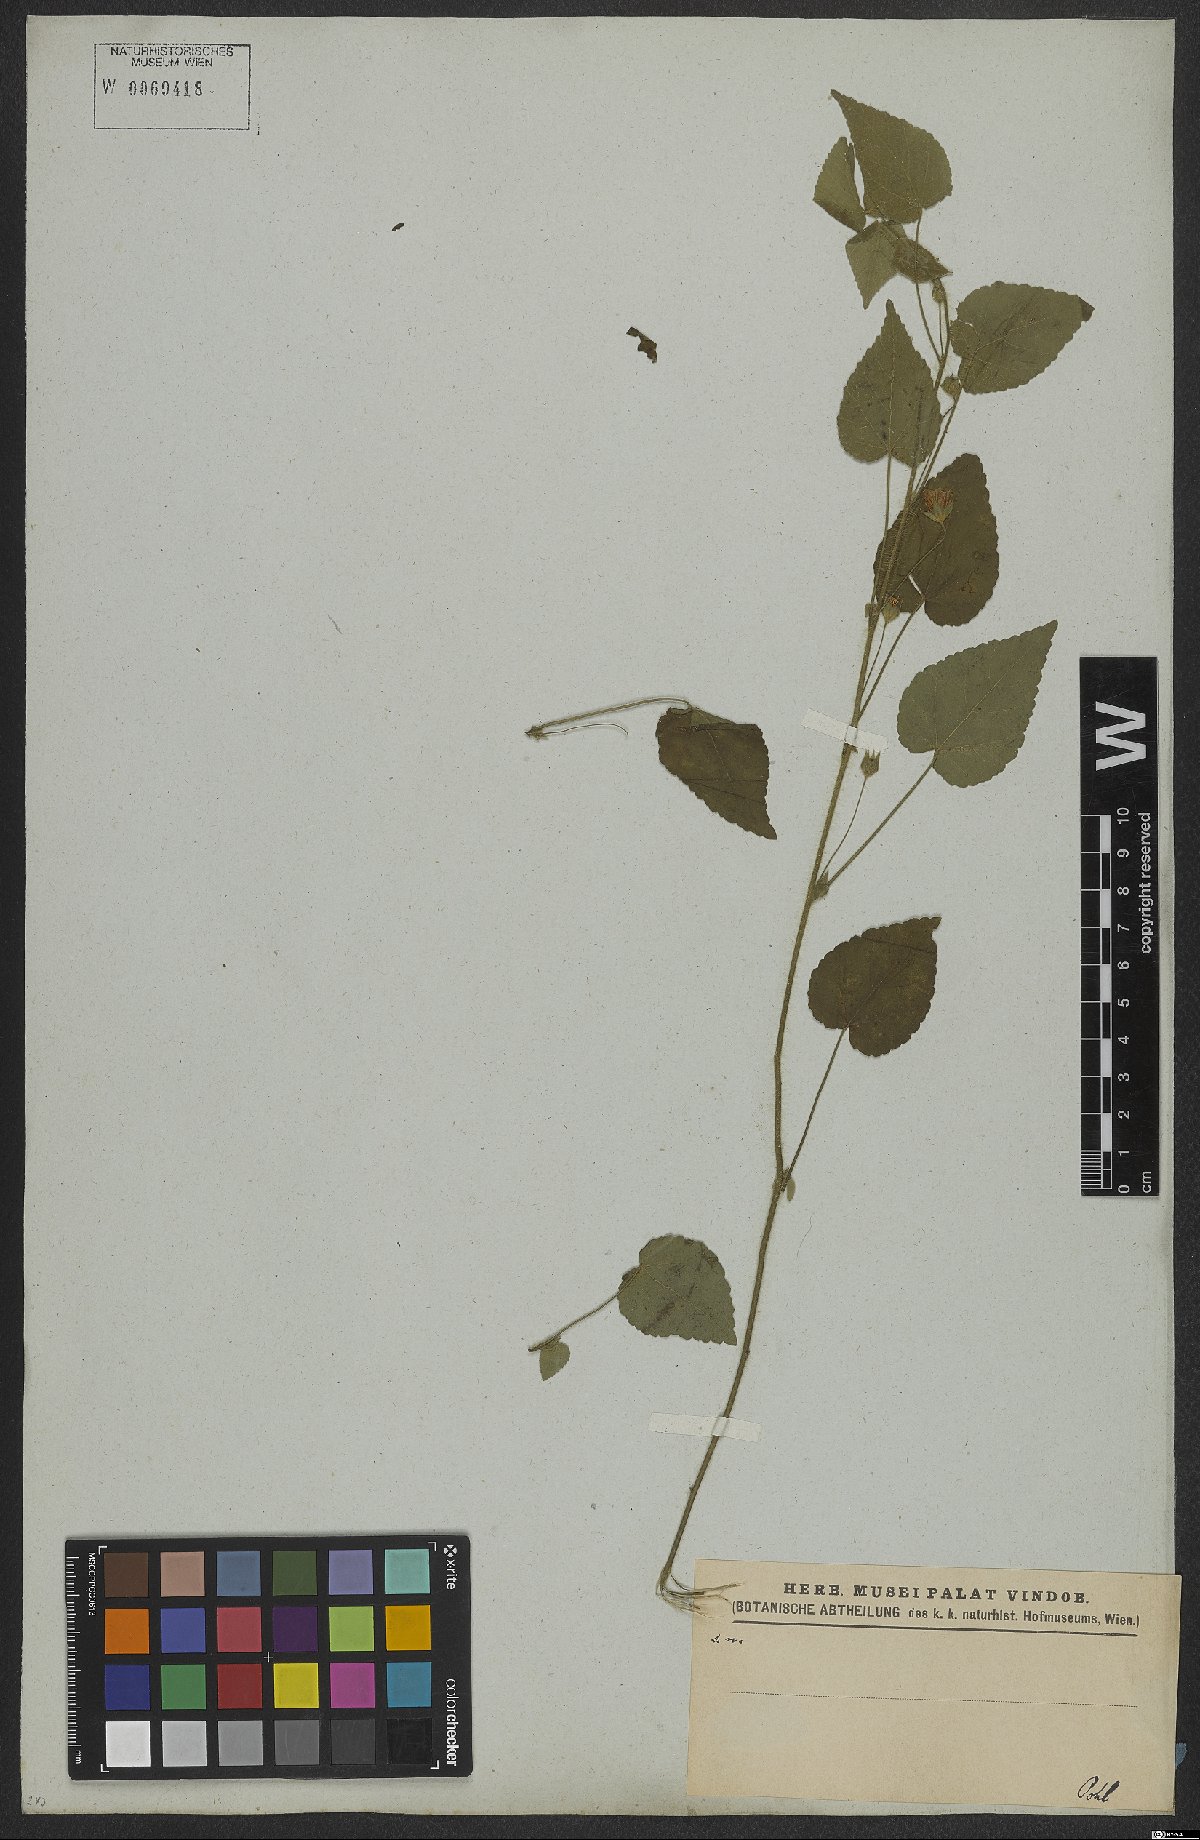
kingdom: Plantae
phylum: Tracheophyta
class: Magnoliopsida
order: Malvales
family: Malvaceae
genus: Sida
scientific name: Sida aurantiaca
